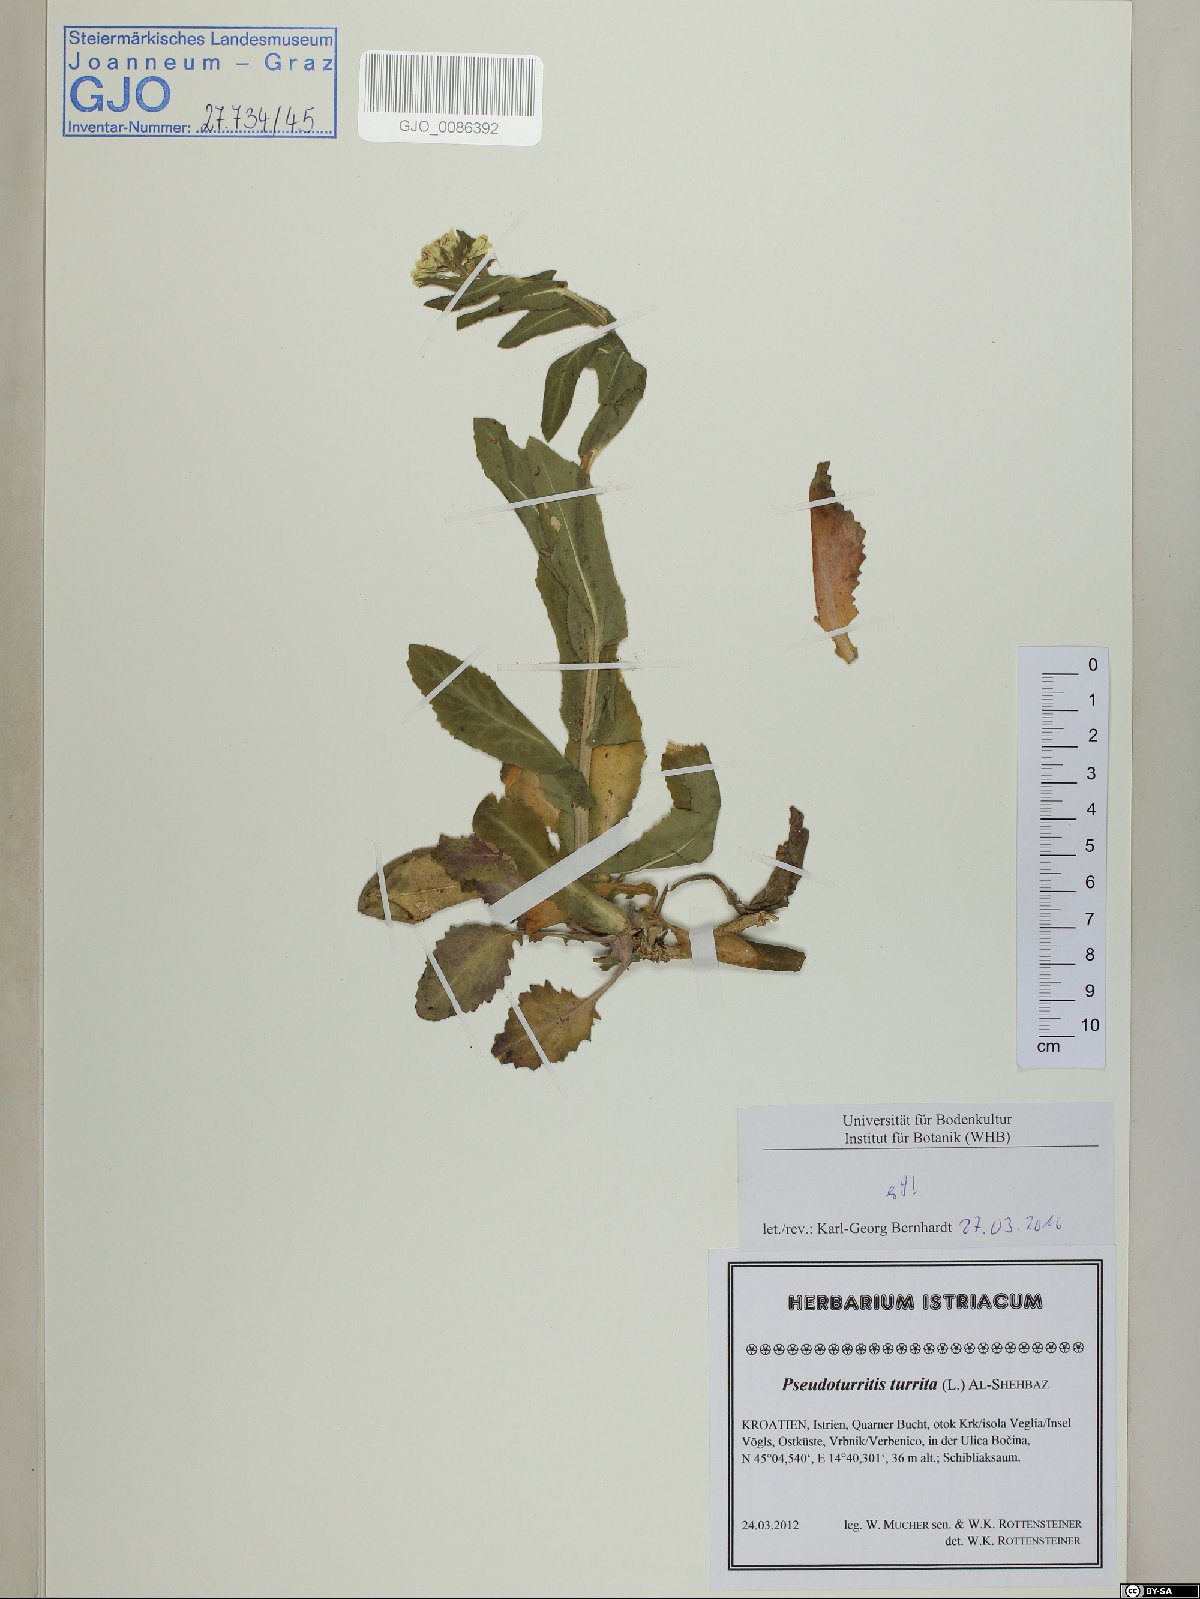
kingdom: Plantae
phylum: Tracheophyta
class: Magnoliopsida
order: Brassicales
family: Brassicaceae
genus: Pseudoturritis
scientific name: Pseudoturritis turrita
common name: Tower cress
